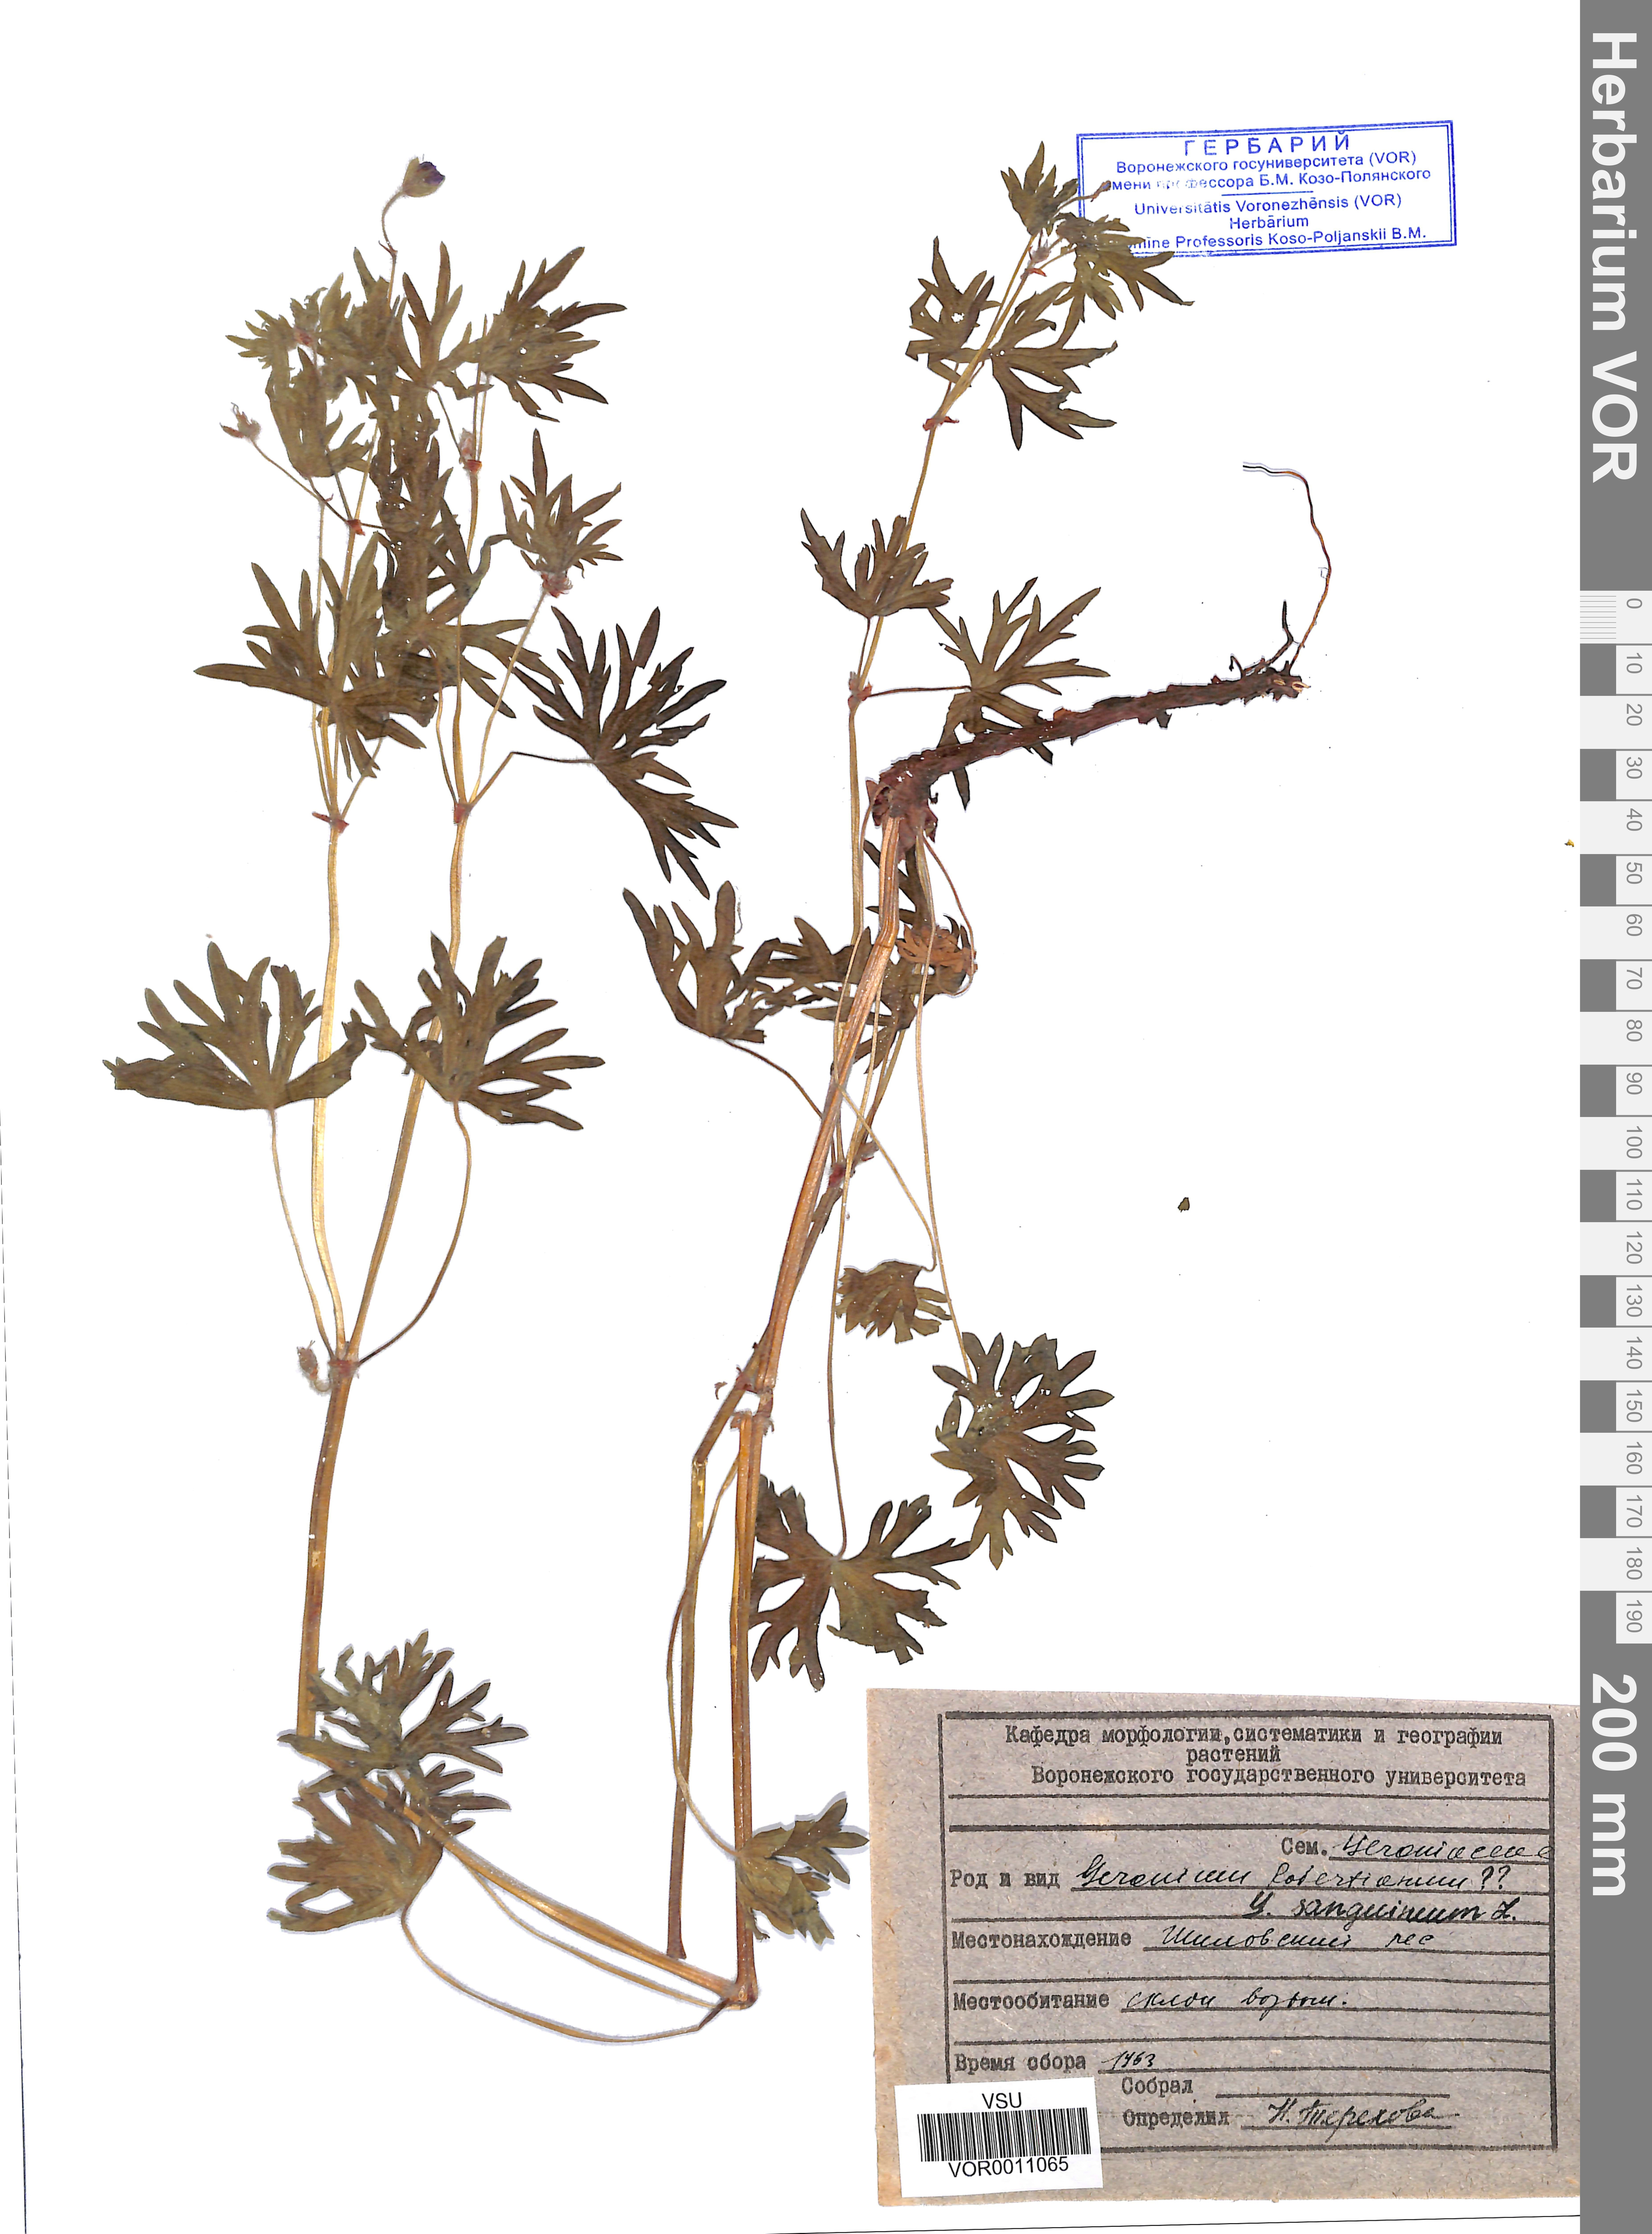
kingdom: Plantae
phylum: Tracheophyta
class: Magnoliopsida
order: Geraniales
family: Geraniaceae
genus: Geranium
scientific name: Geranium sanguineum
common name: Bloody crane's-bill
